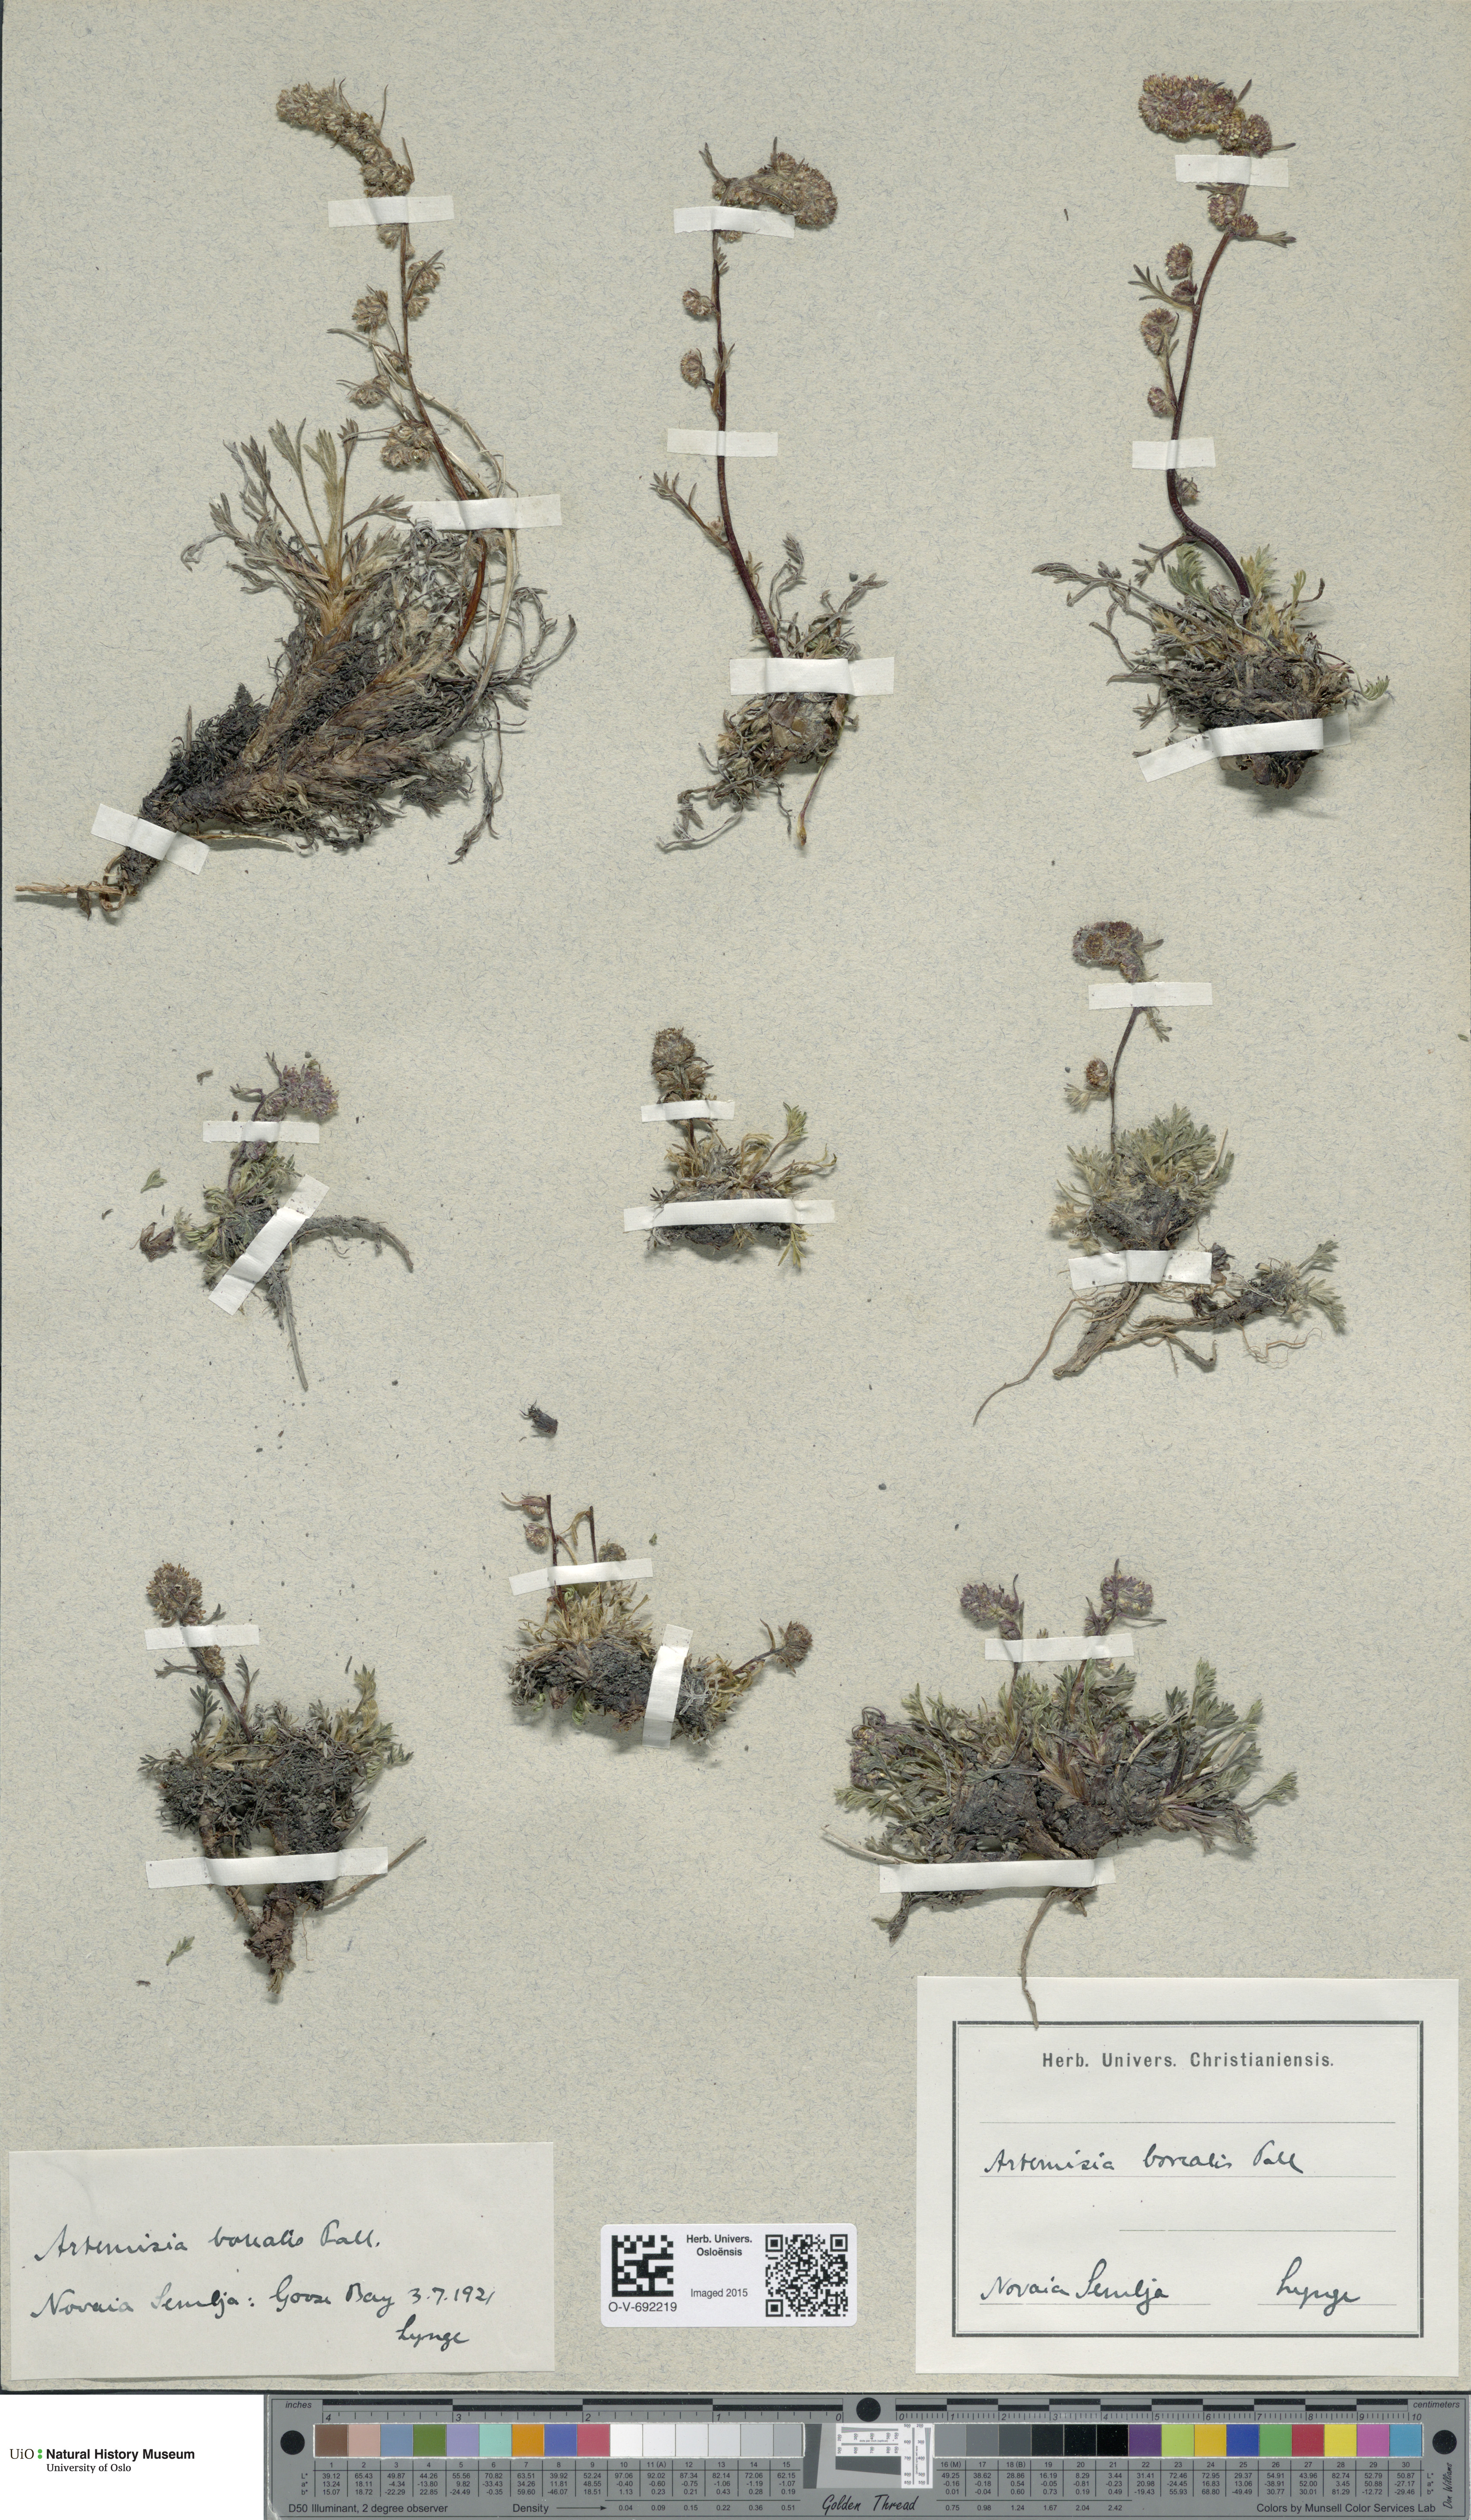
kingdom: Plantae
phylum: Tracheophyta
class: Magnoliopsida
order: Asterales
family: Asteraceae
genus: Artemisia
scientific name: Artemisia borealis
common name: Boreal sage
